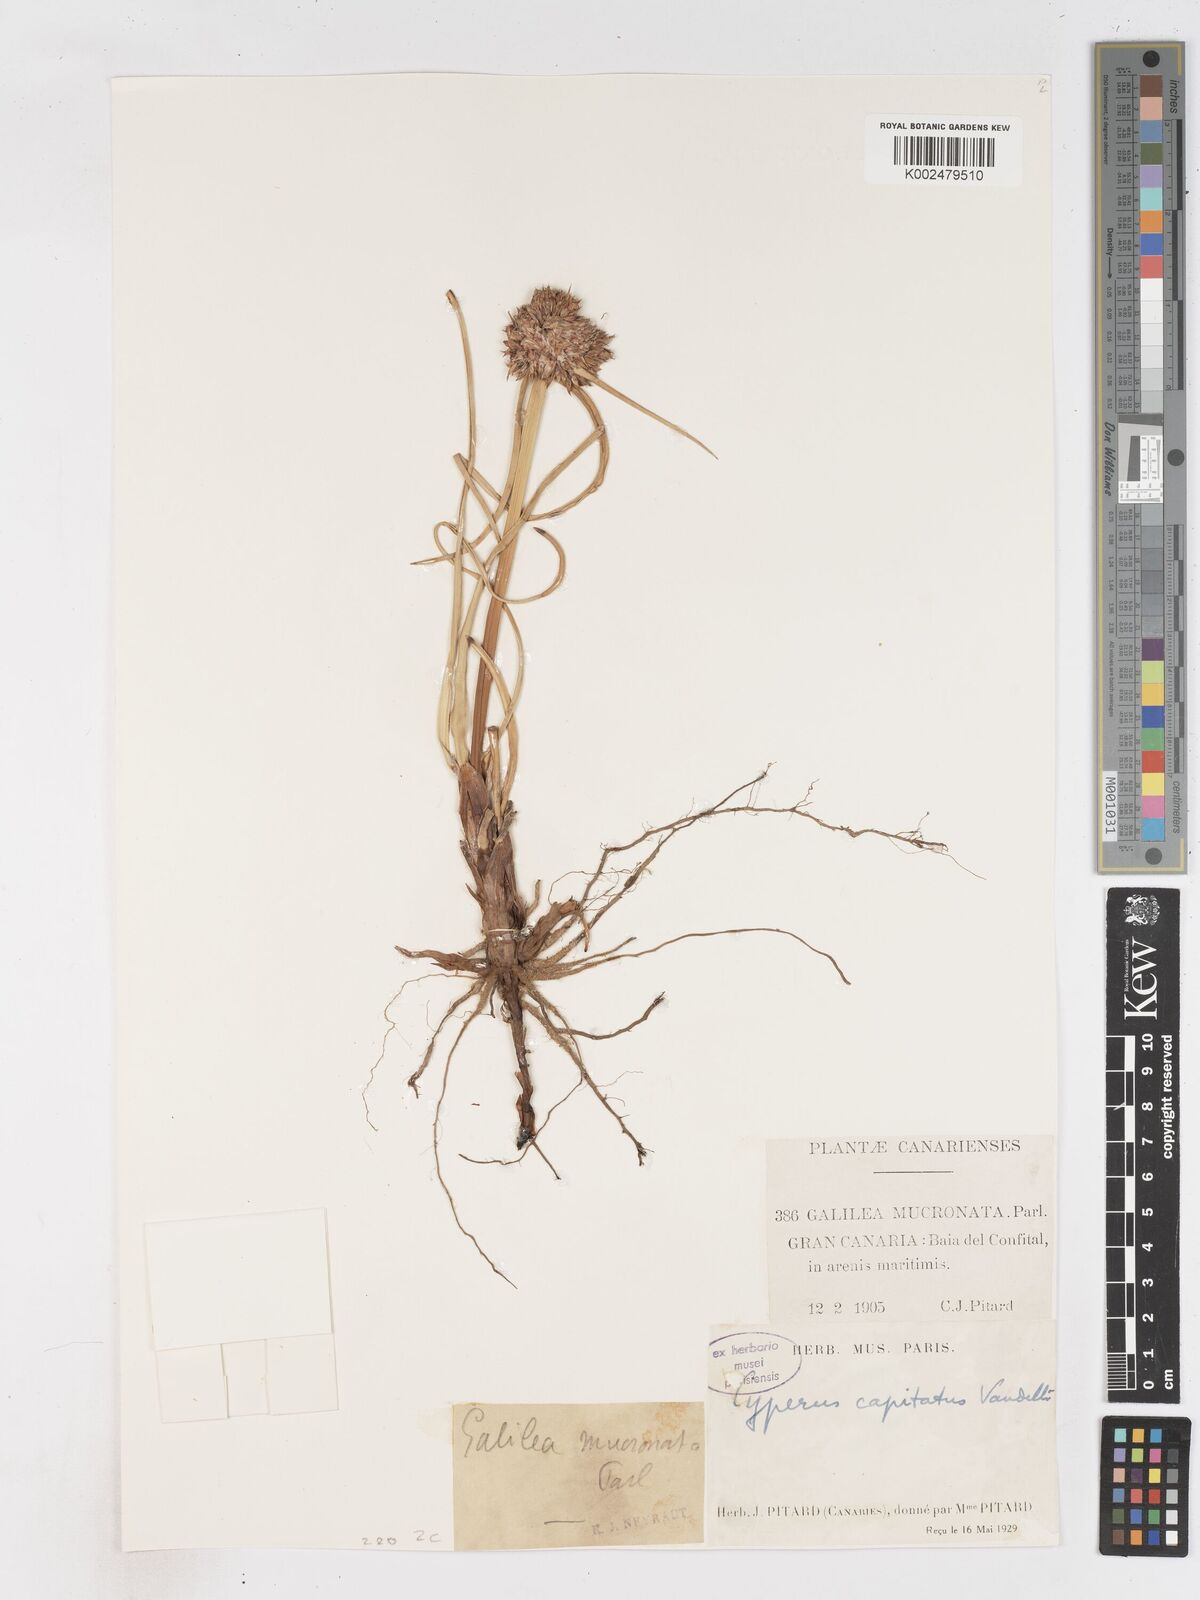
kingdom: Plantae
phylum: Tracheophyta
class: Liliopsida
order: Poales
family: Cyperaceae
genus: Cyperus
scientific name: Cyperus capitatus
